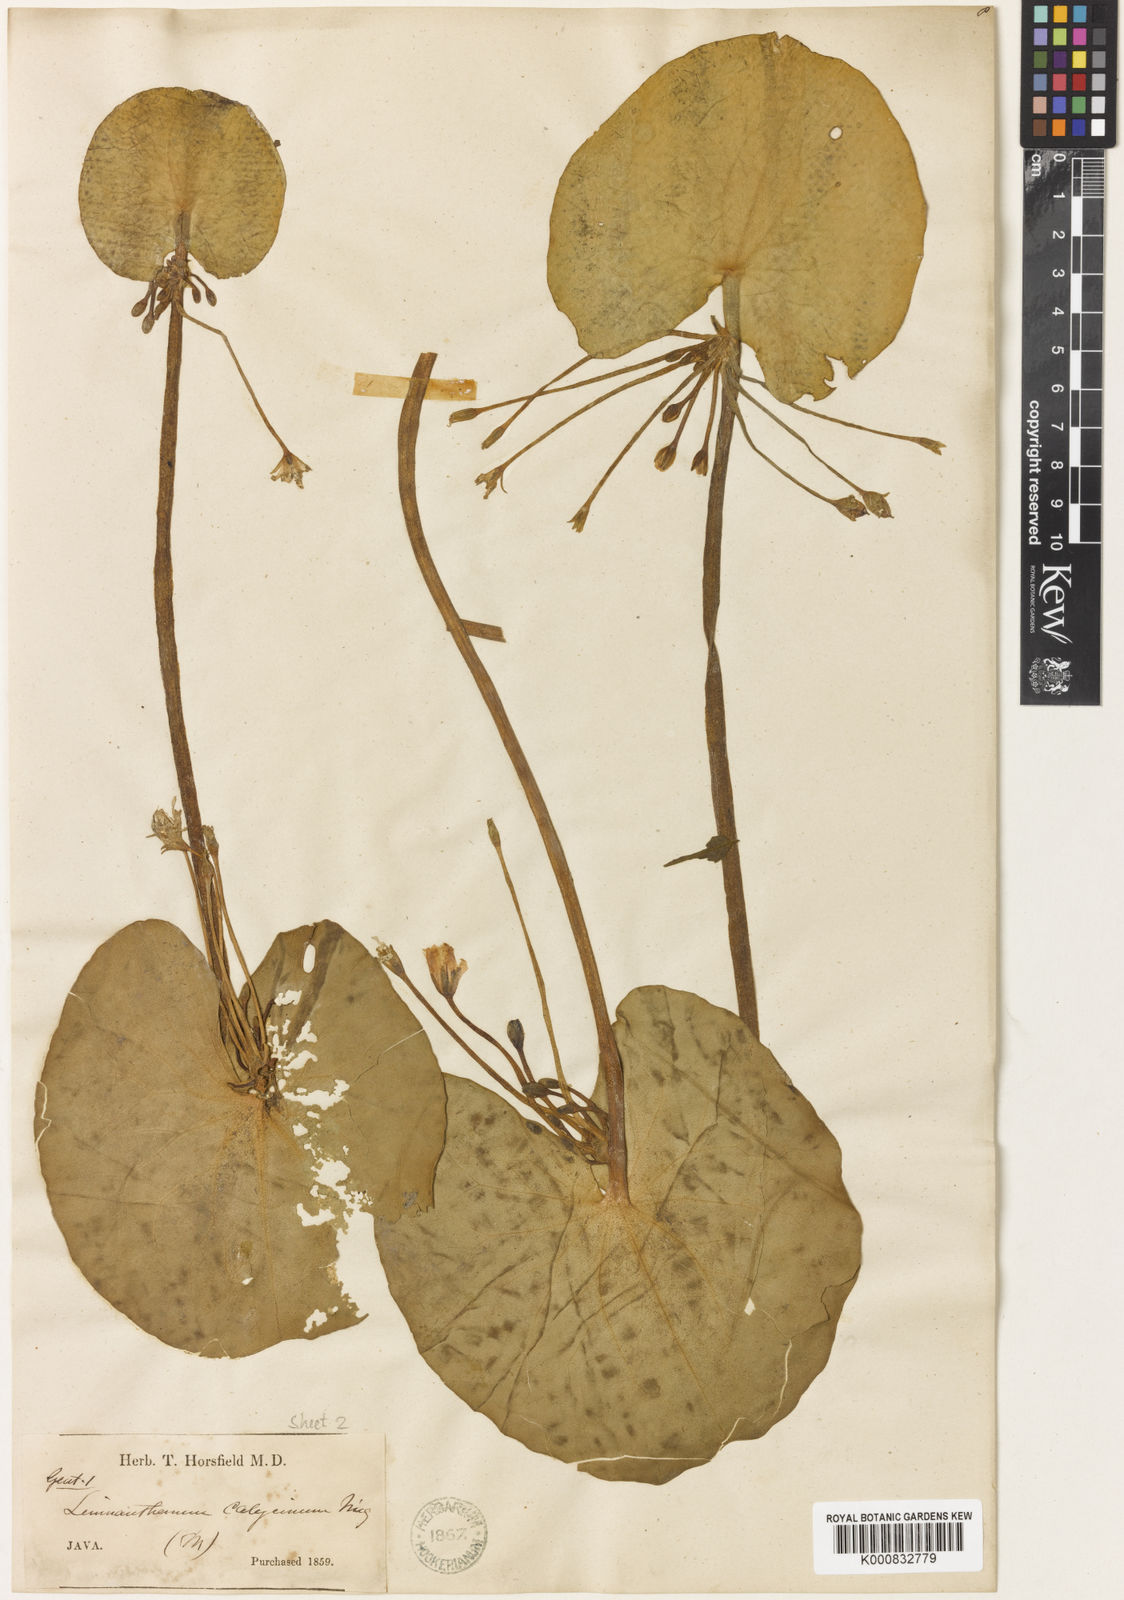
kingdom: Plantae
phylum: Tracheophyta
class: Magnoliopsida
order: Asterales
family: Menyanthaceae
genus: Nymphoides
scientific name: Nymphoides
